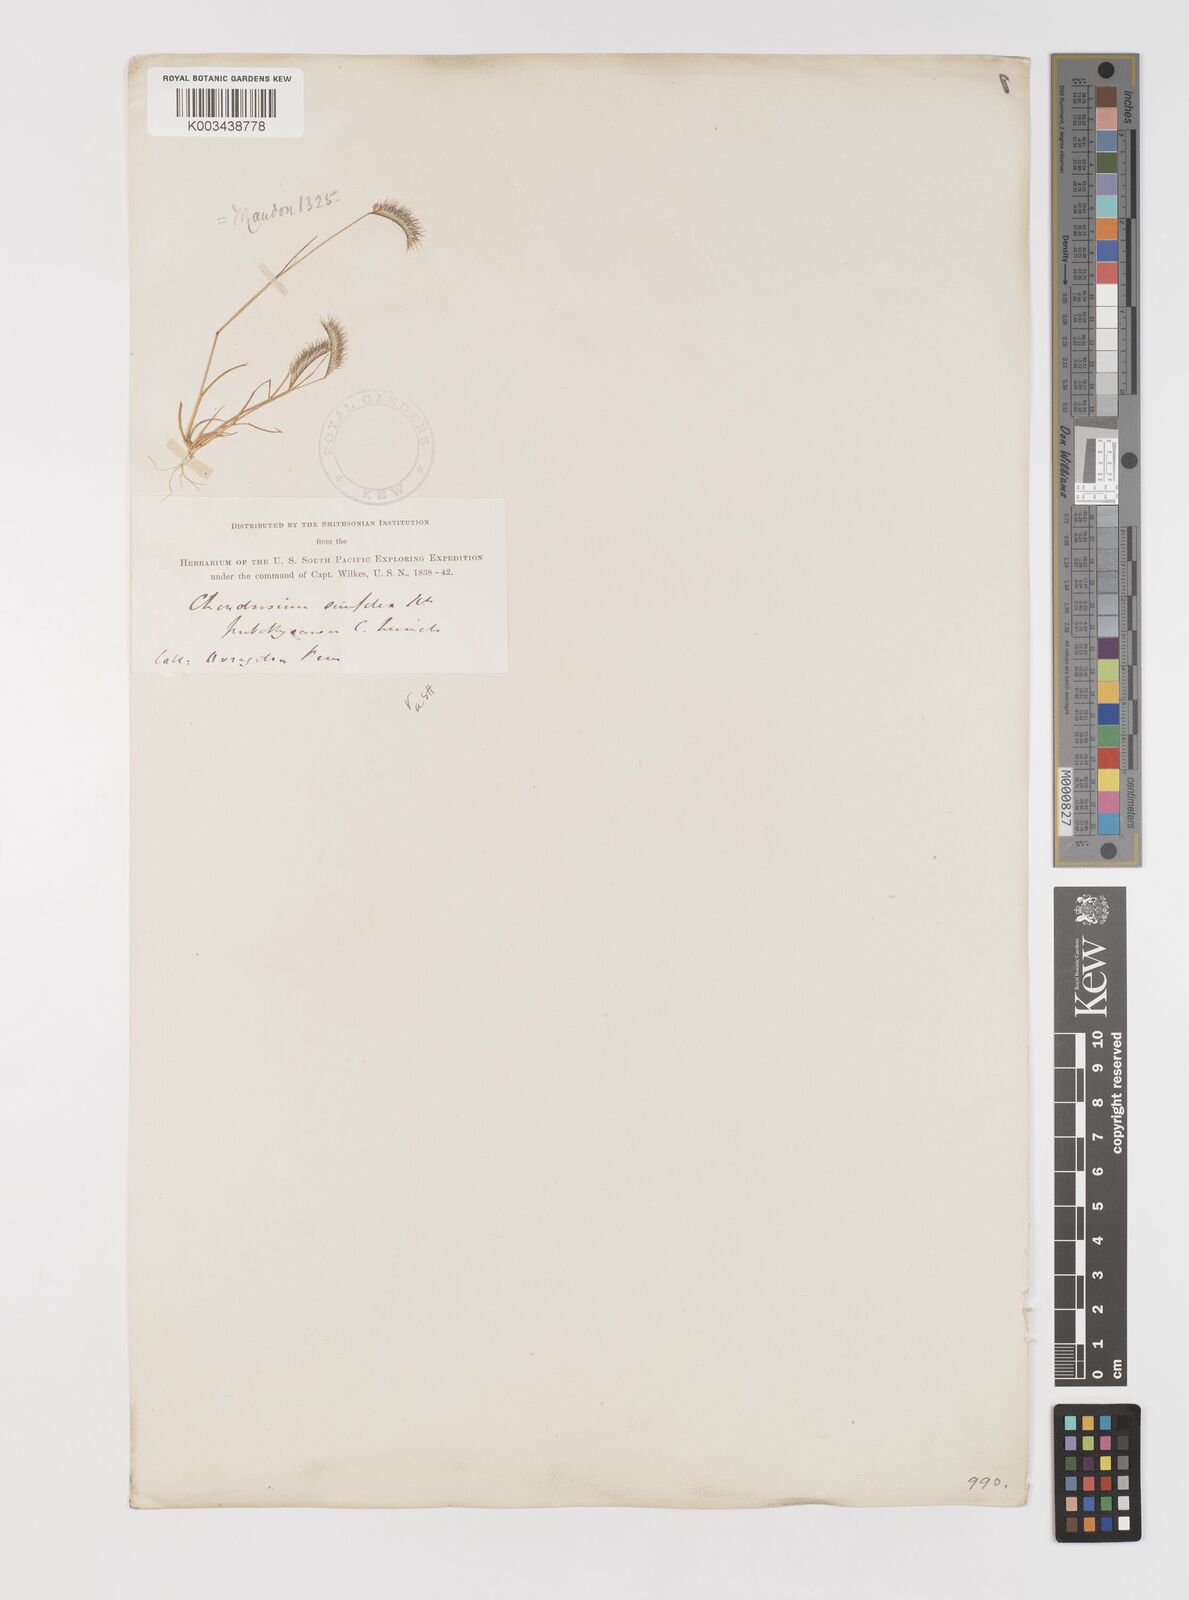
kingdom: Plantae
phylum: Tracheophyta
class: Liliopsida
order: Poales
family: Poaceae
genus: Bouteloua
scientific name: Bouteloua simplex
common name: Mat grama
